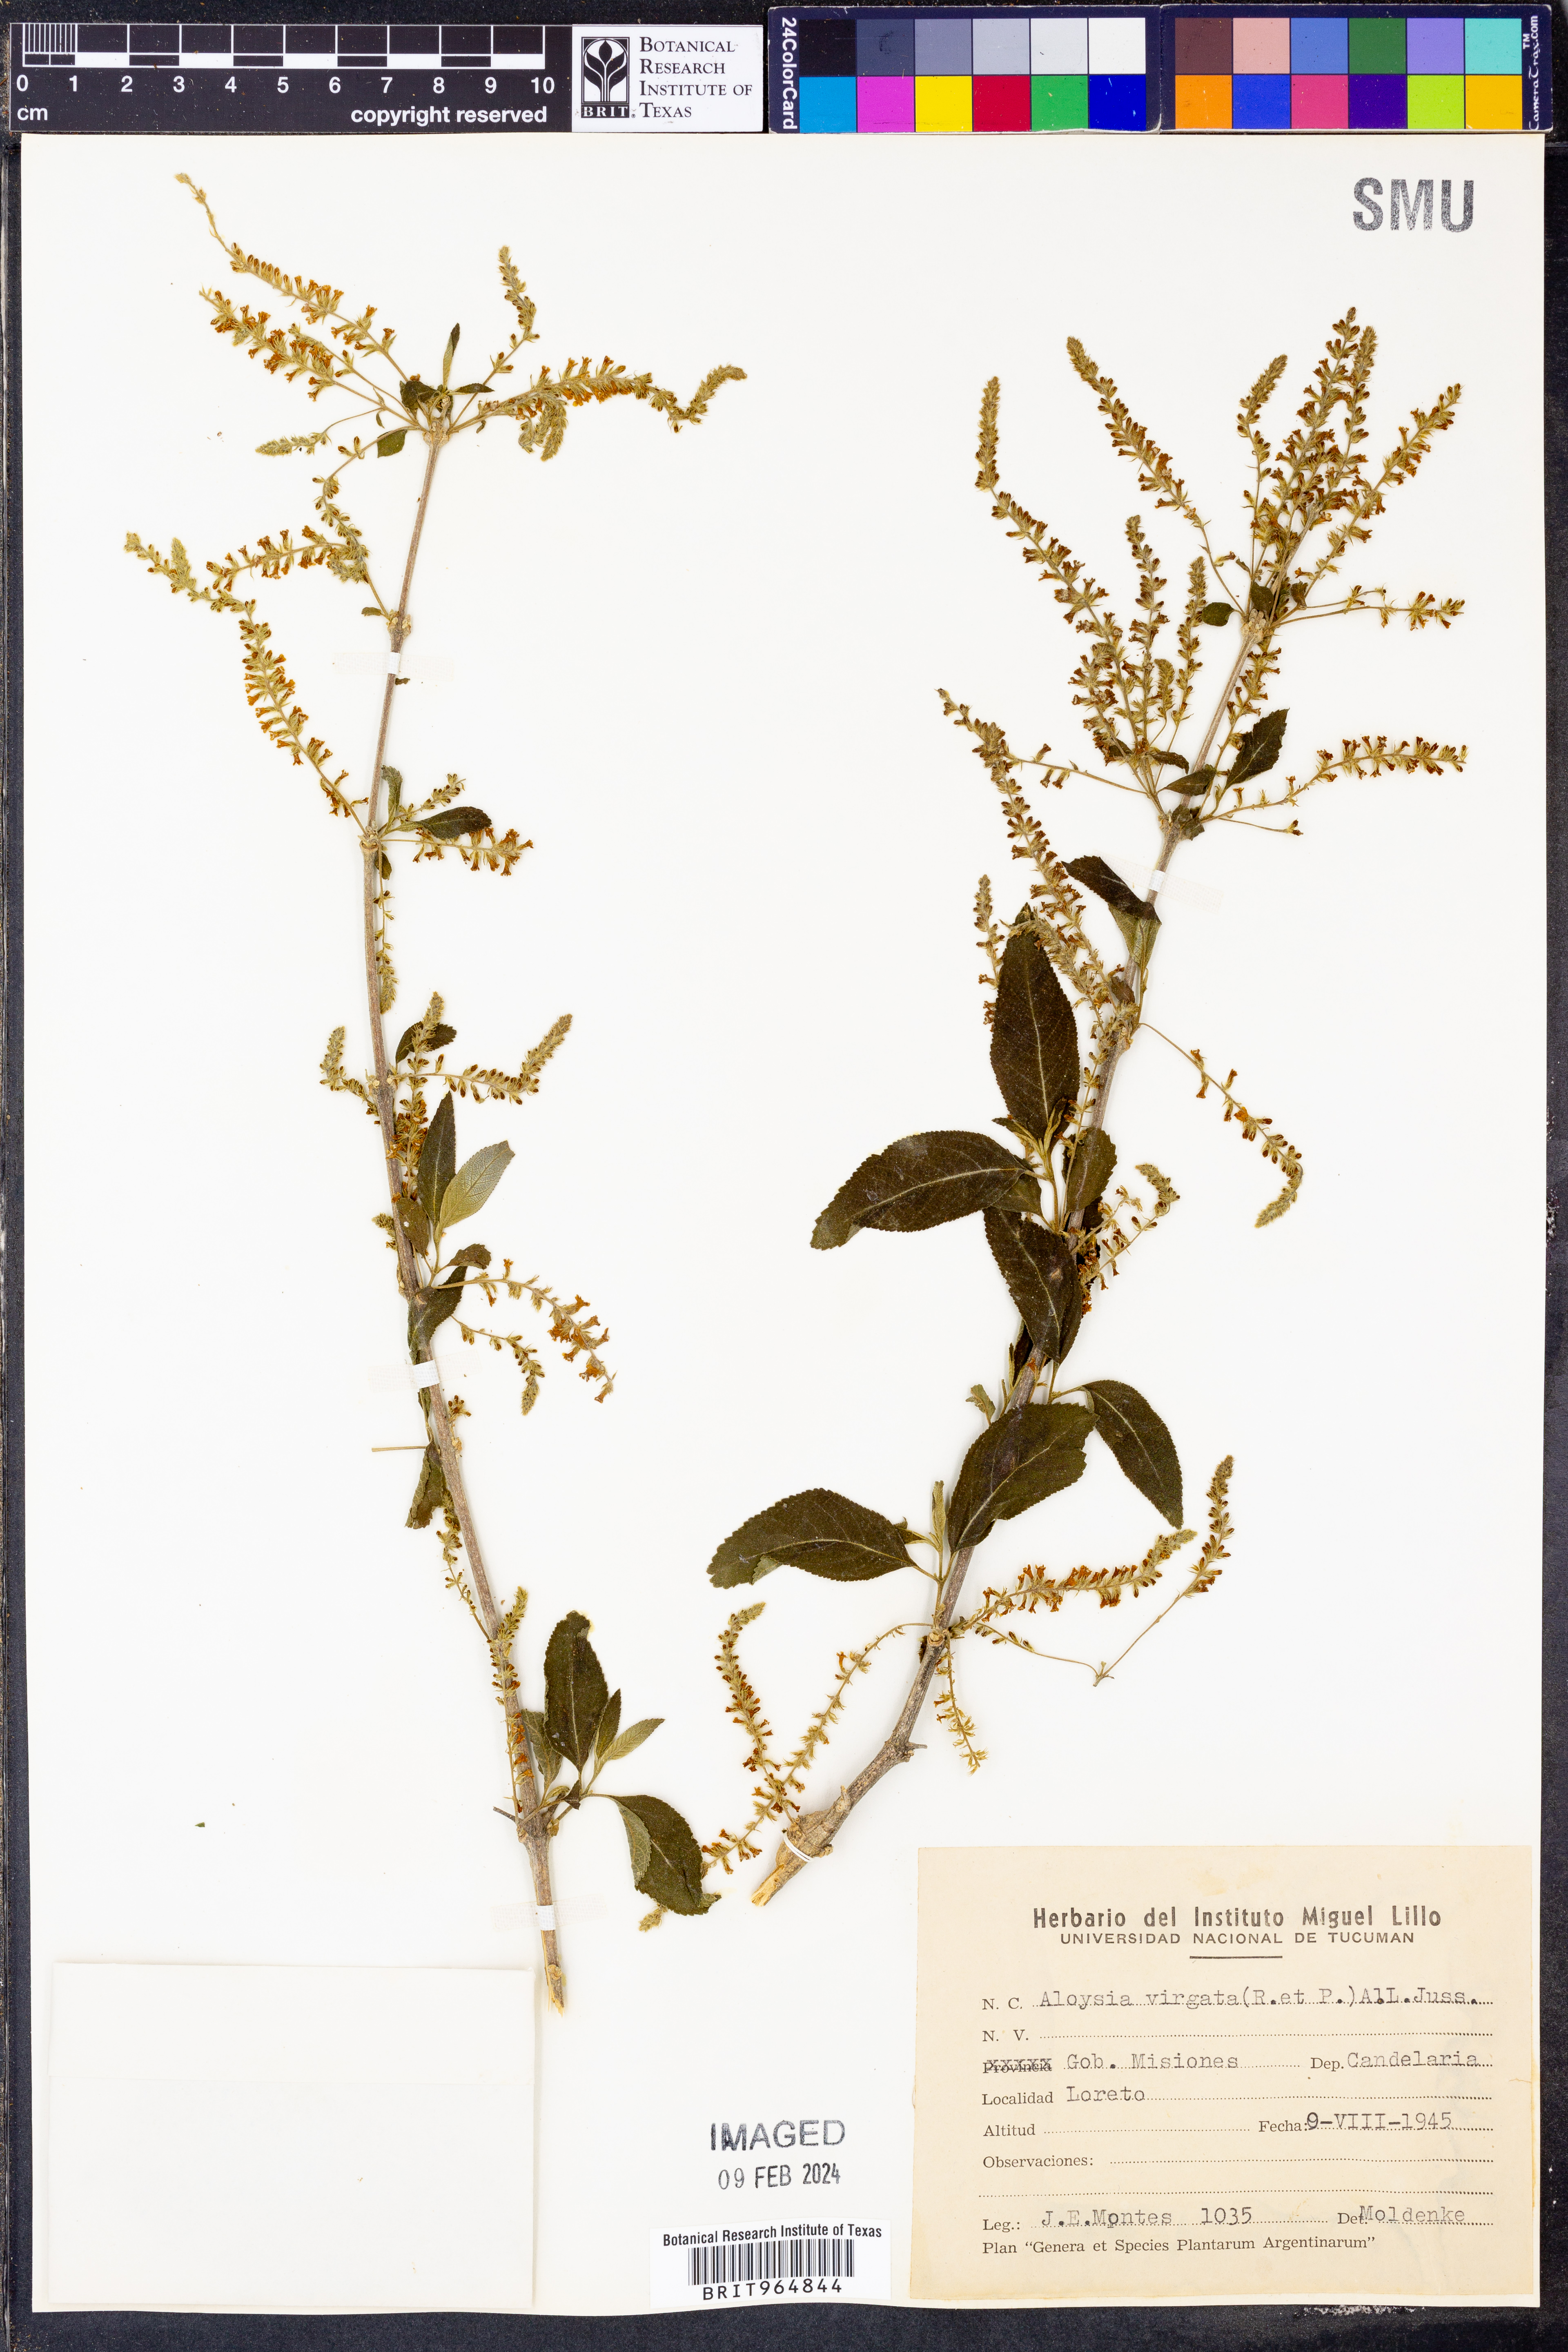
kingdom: Plantae
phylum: Tracheophyta
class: Magnoliopsida
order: Lamiales
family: Verbenaceae
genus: Aloysia
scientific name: Aloysia
